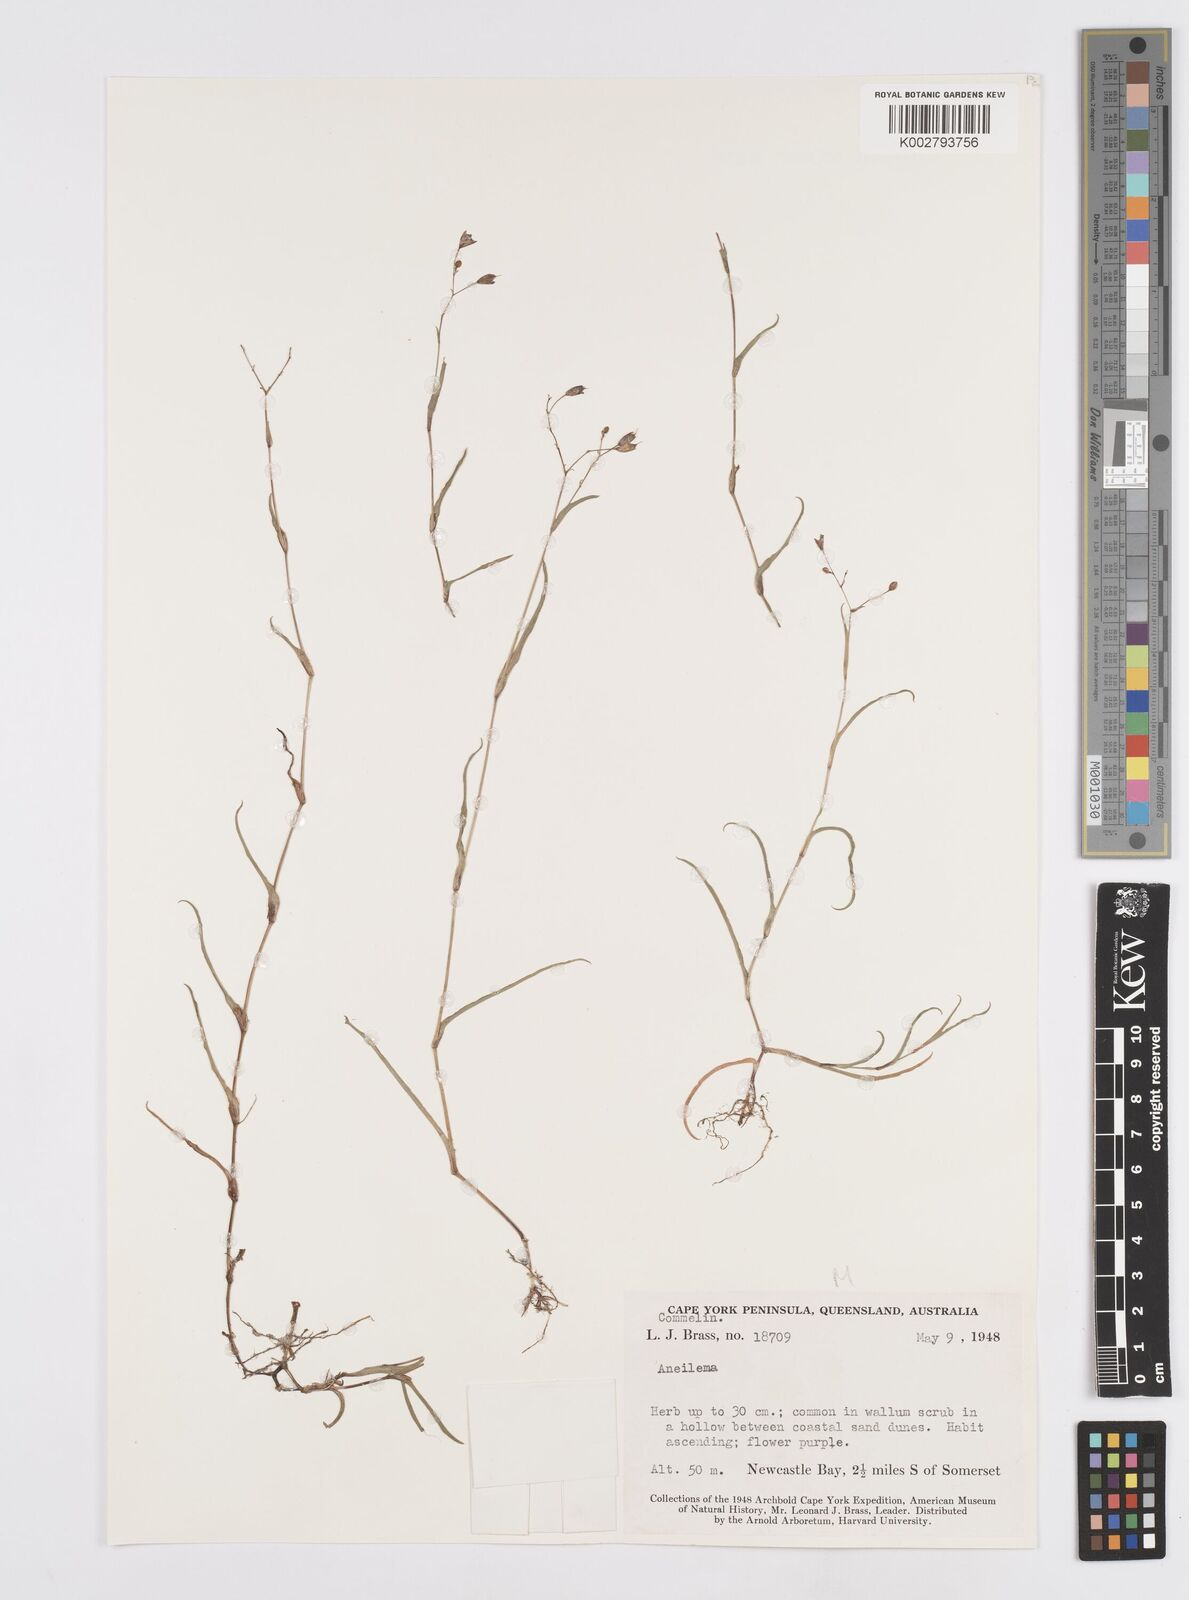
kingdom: Plantae
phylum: Tracheophyta
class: Liliopsida
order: Commelinales
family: Commelinaceae
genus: Murdannia
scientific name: Murdannia
